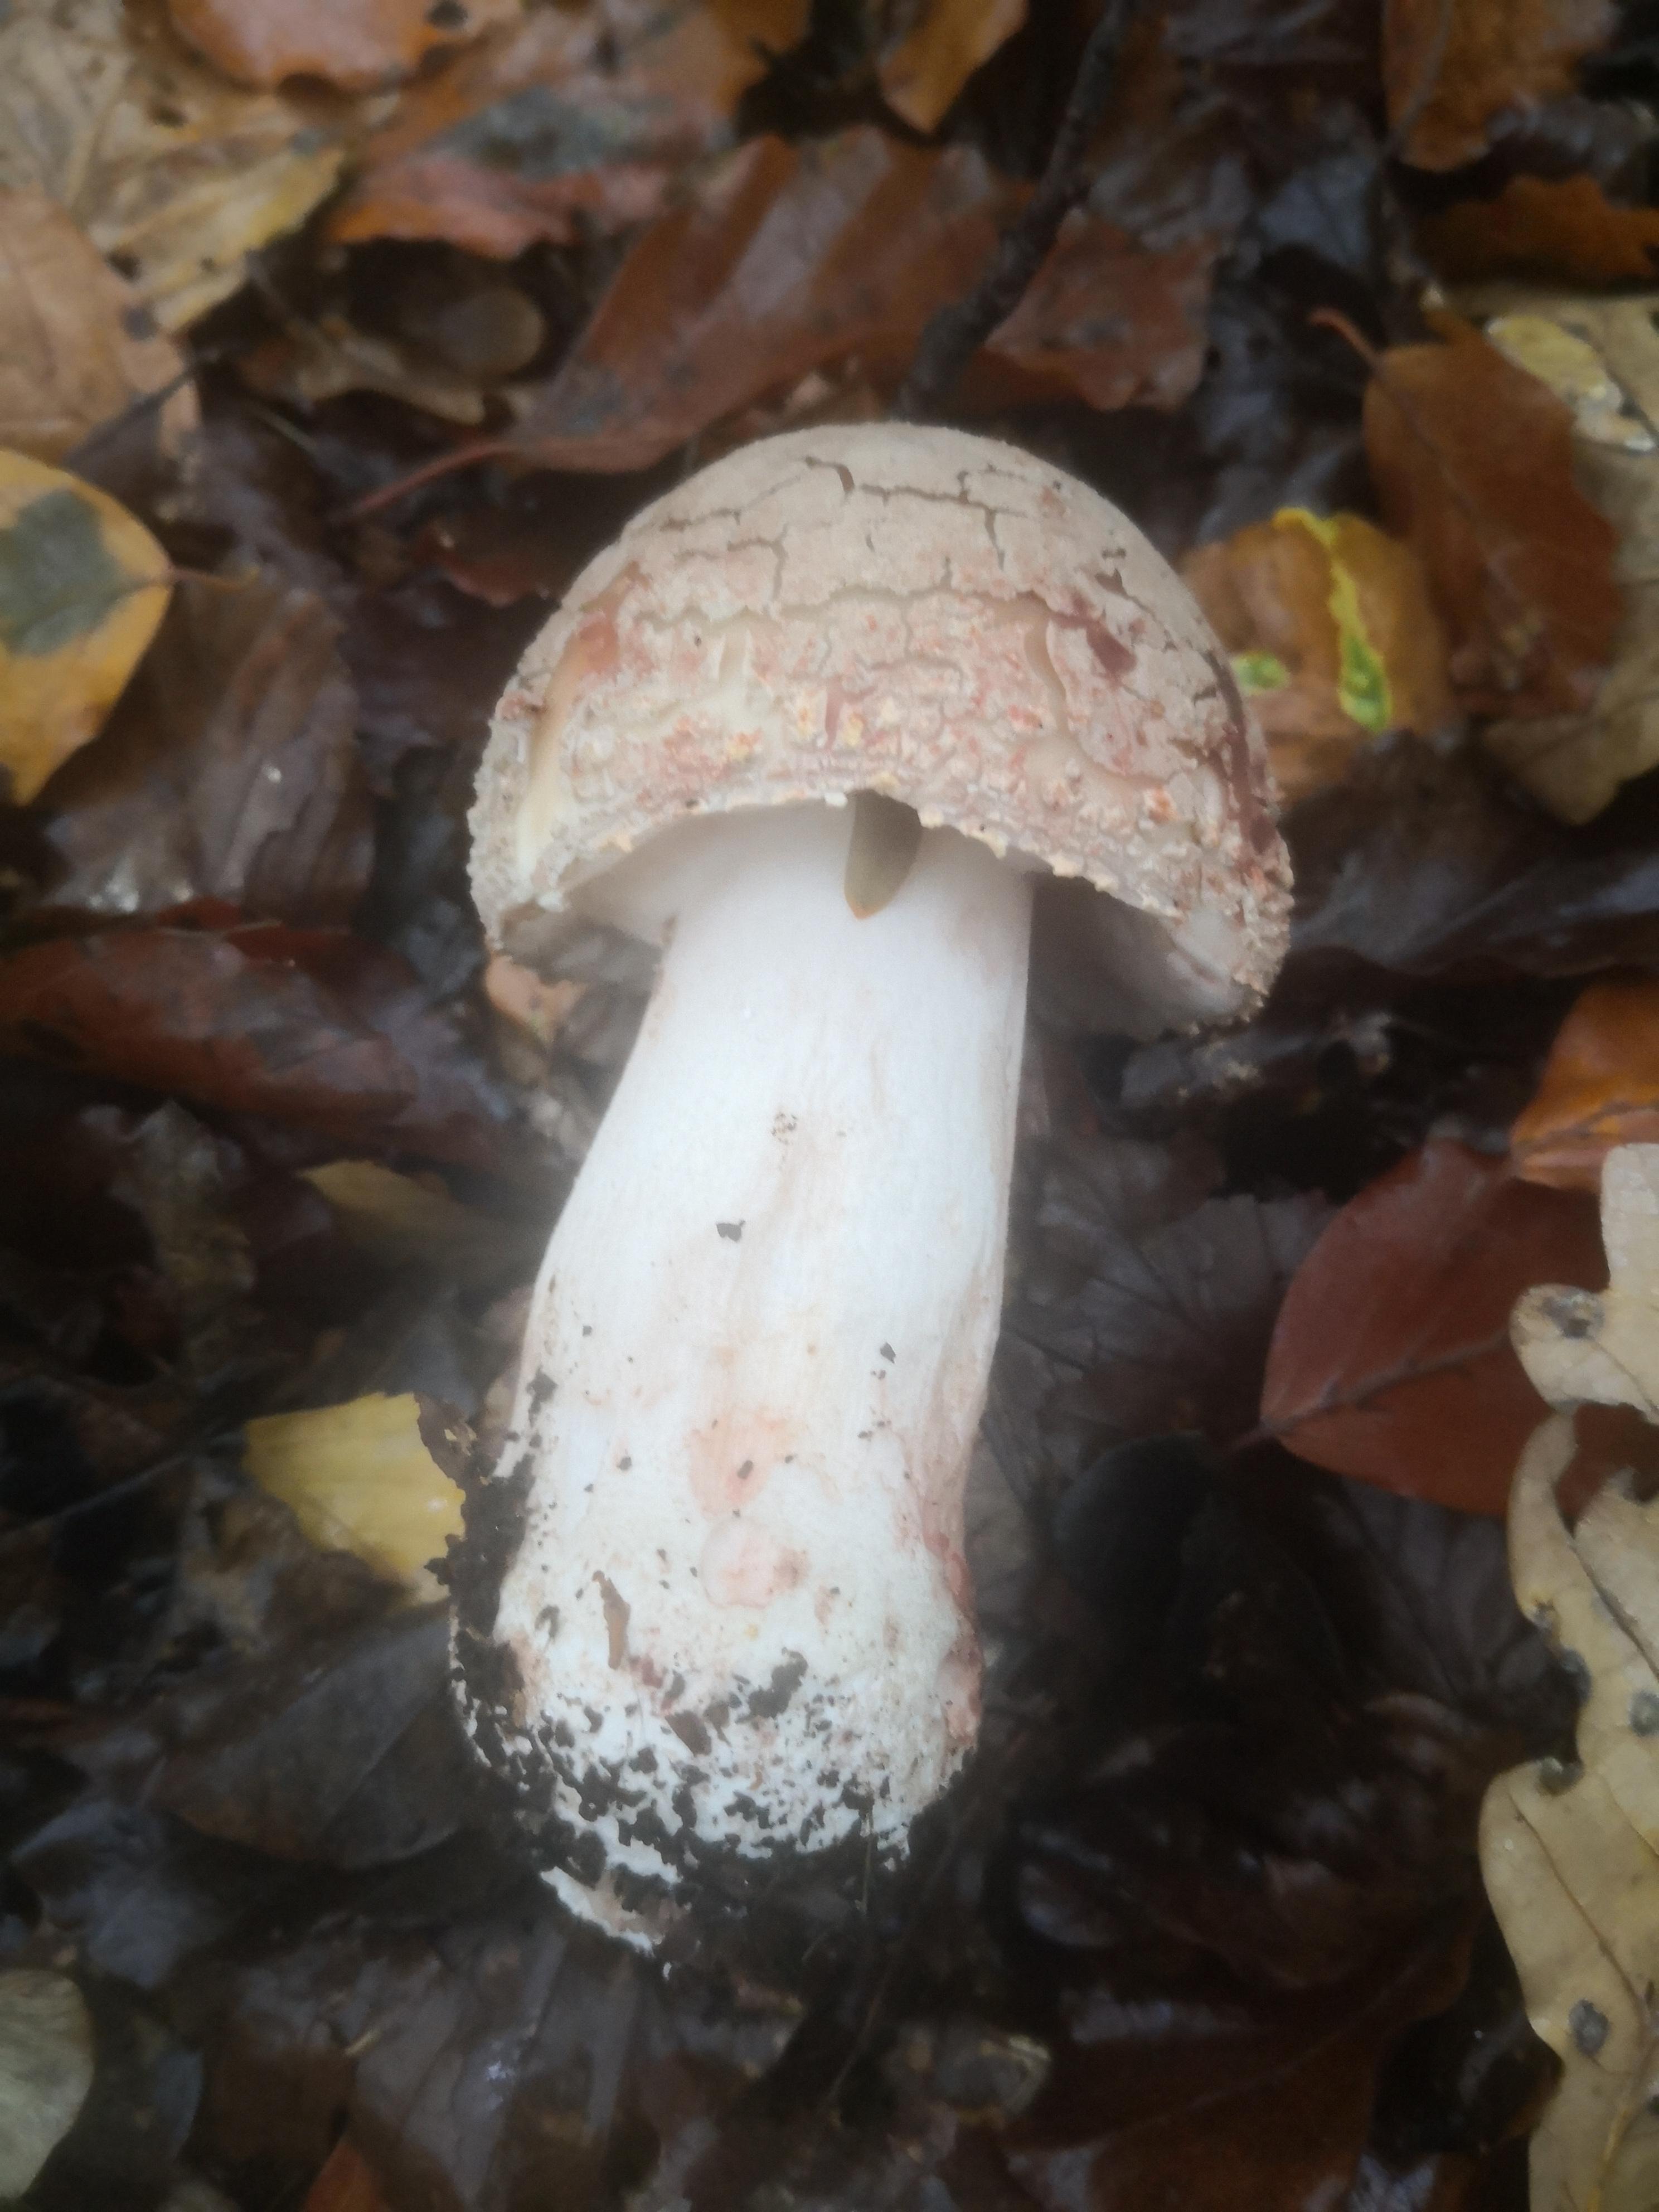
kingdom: Fungi
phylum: Basidiomycota
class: Agaricomycetes
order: Agaricales
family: Amanitaceae
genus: Amanita
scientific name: Amanita rubescens
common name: rødmende fluesvamp
